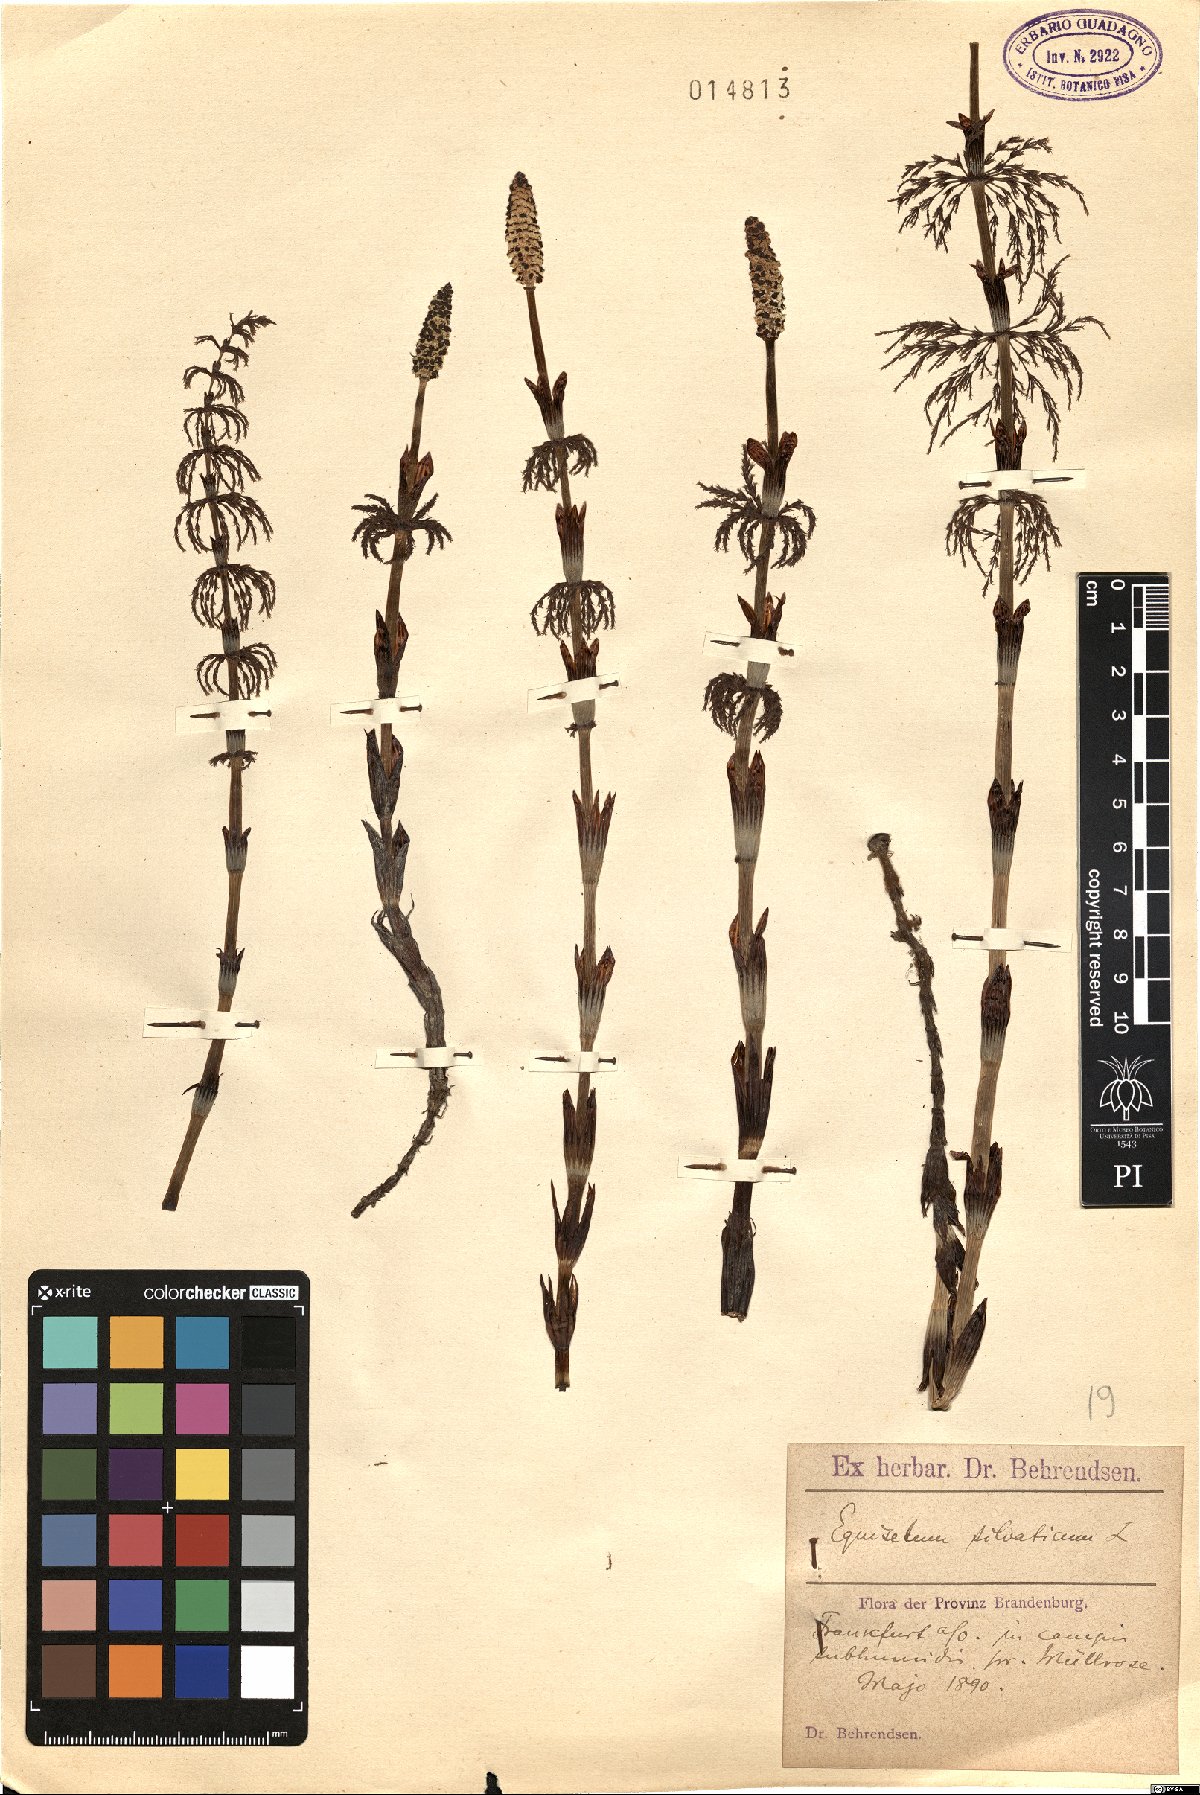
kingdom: Plantae
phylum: Tracheophyta
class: Polypodiopsida
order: Equisetales
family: Equisetaceae
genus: Equisetum
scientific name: Equisetum sylvaticum
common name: Wood horsetail
